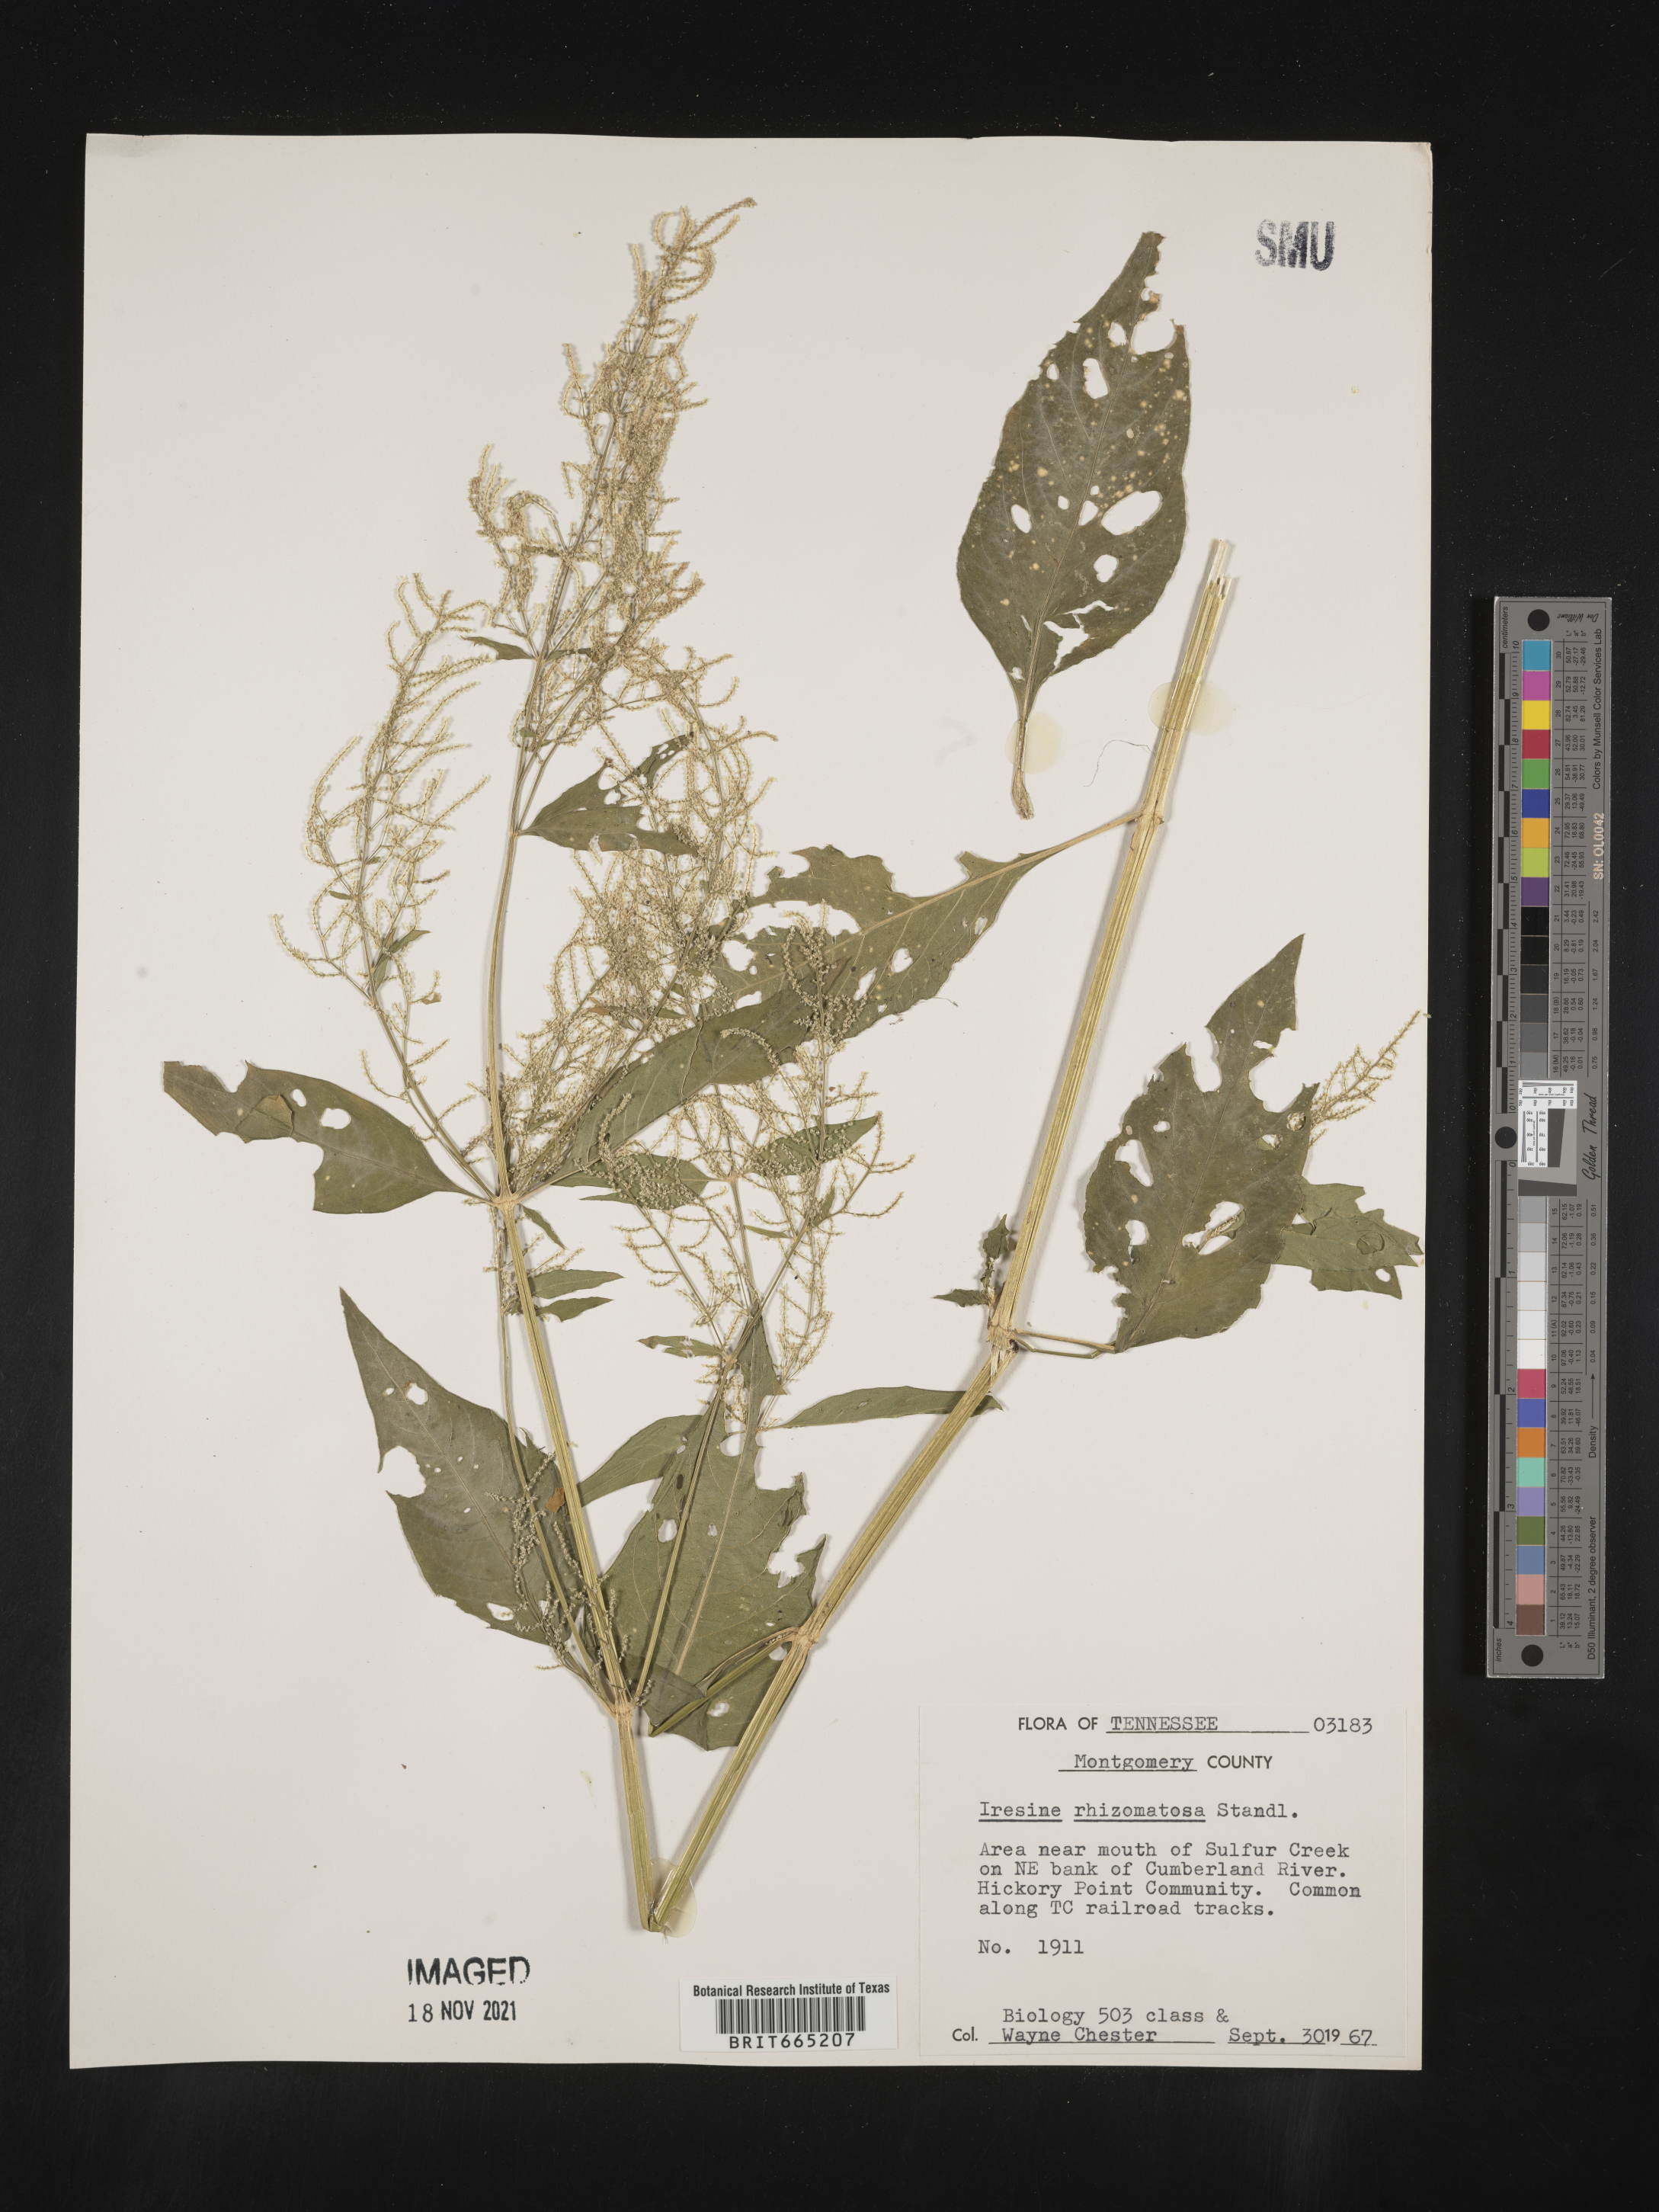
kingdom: Plantae
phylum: Tracheophyta
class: Magnoliopsida
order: Caryophyllales
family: Amaranthaceae
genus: Iresine
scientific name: Iresine rhizomatosa
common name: Juda's-bush
